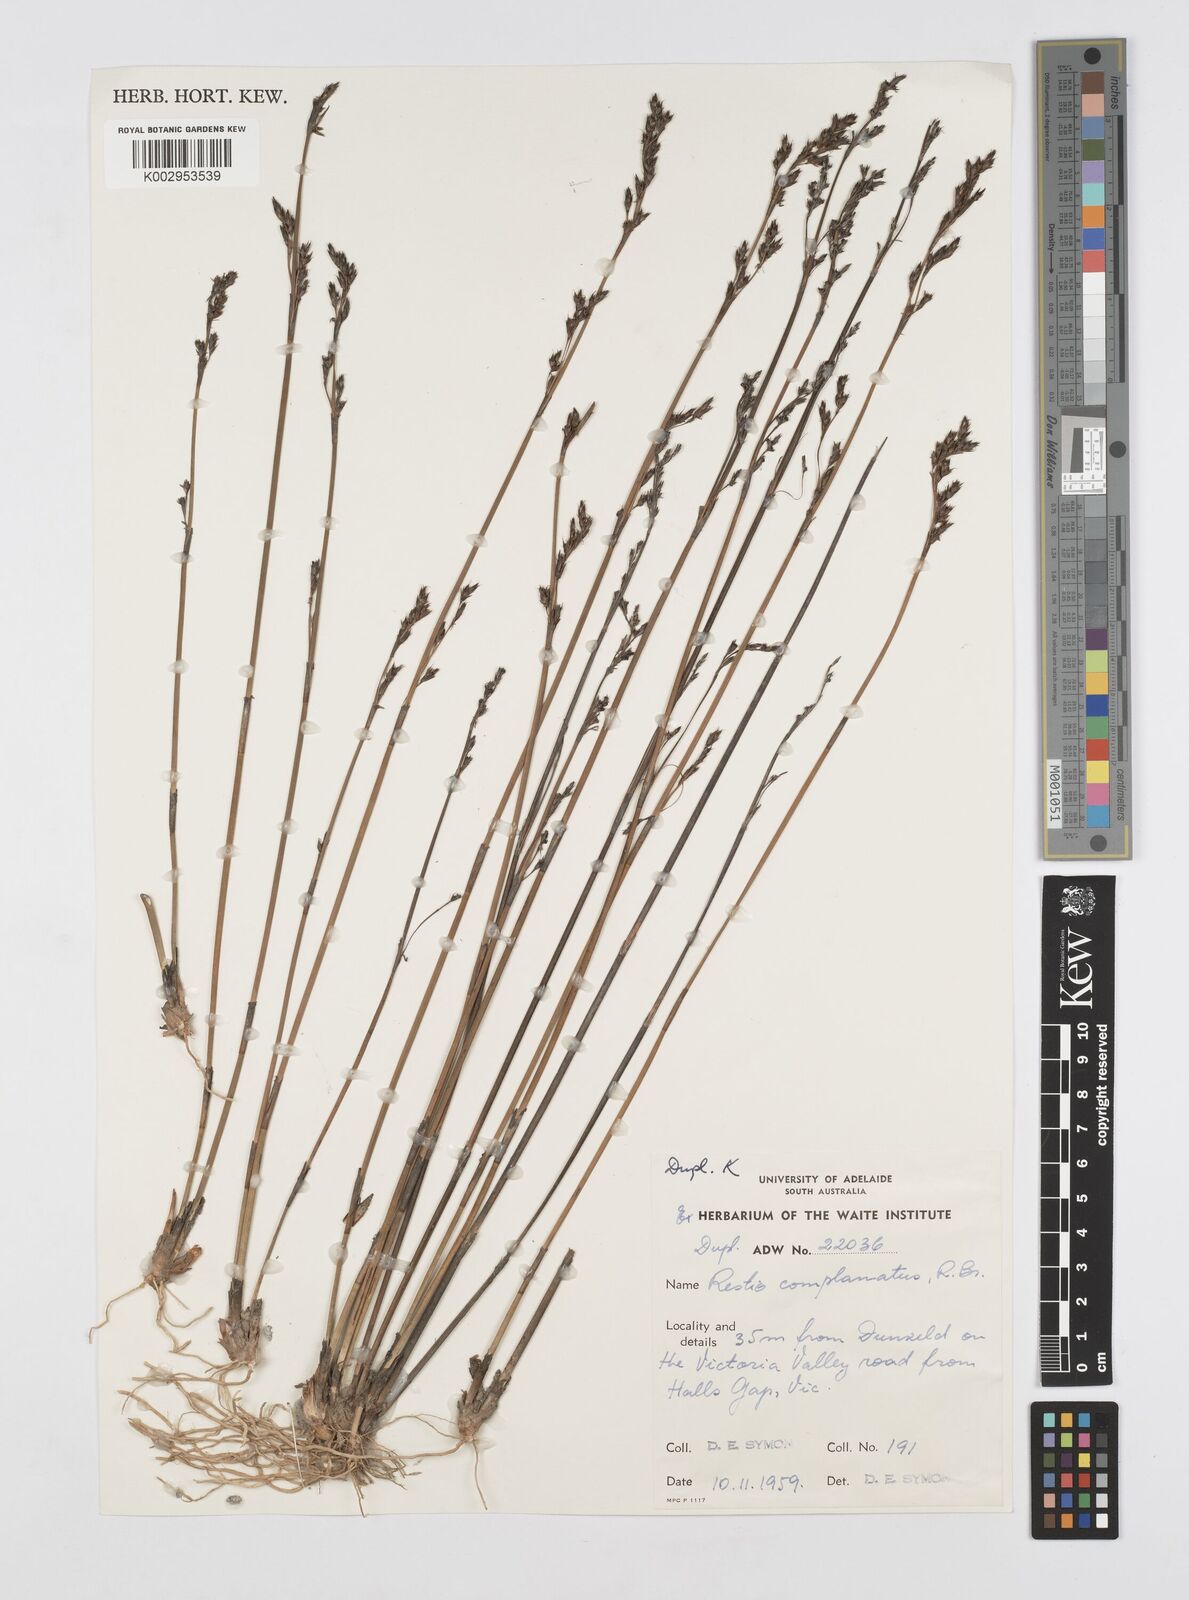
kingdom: Plantae
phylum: Tracheophyta
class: Liliopsida
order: Poales
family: Restionaceae
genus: Eurychorda
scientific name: Eurychorda complanata
